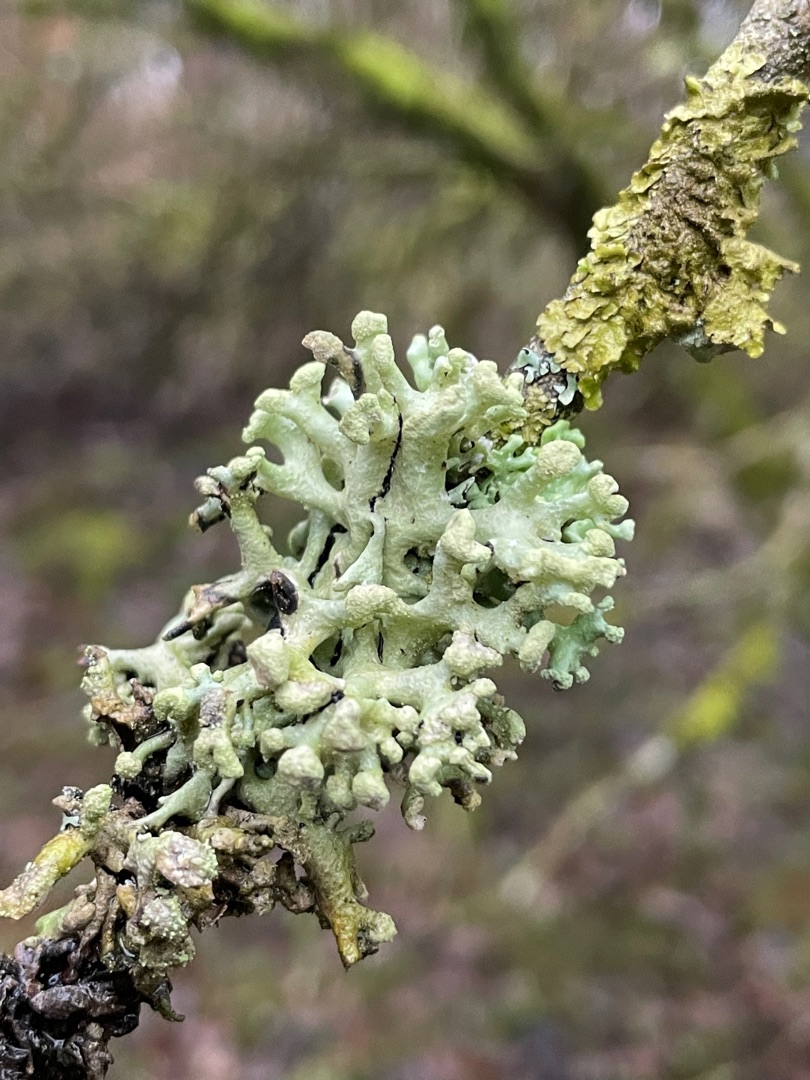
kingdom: Fungi
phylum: Ascomycota
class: Lecanoromycetes
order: Lecanorales
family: Parmeliaceae
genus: Hypogymnia
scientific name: Hypogymnia tubulosa
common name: Finger-kvistlav
